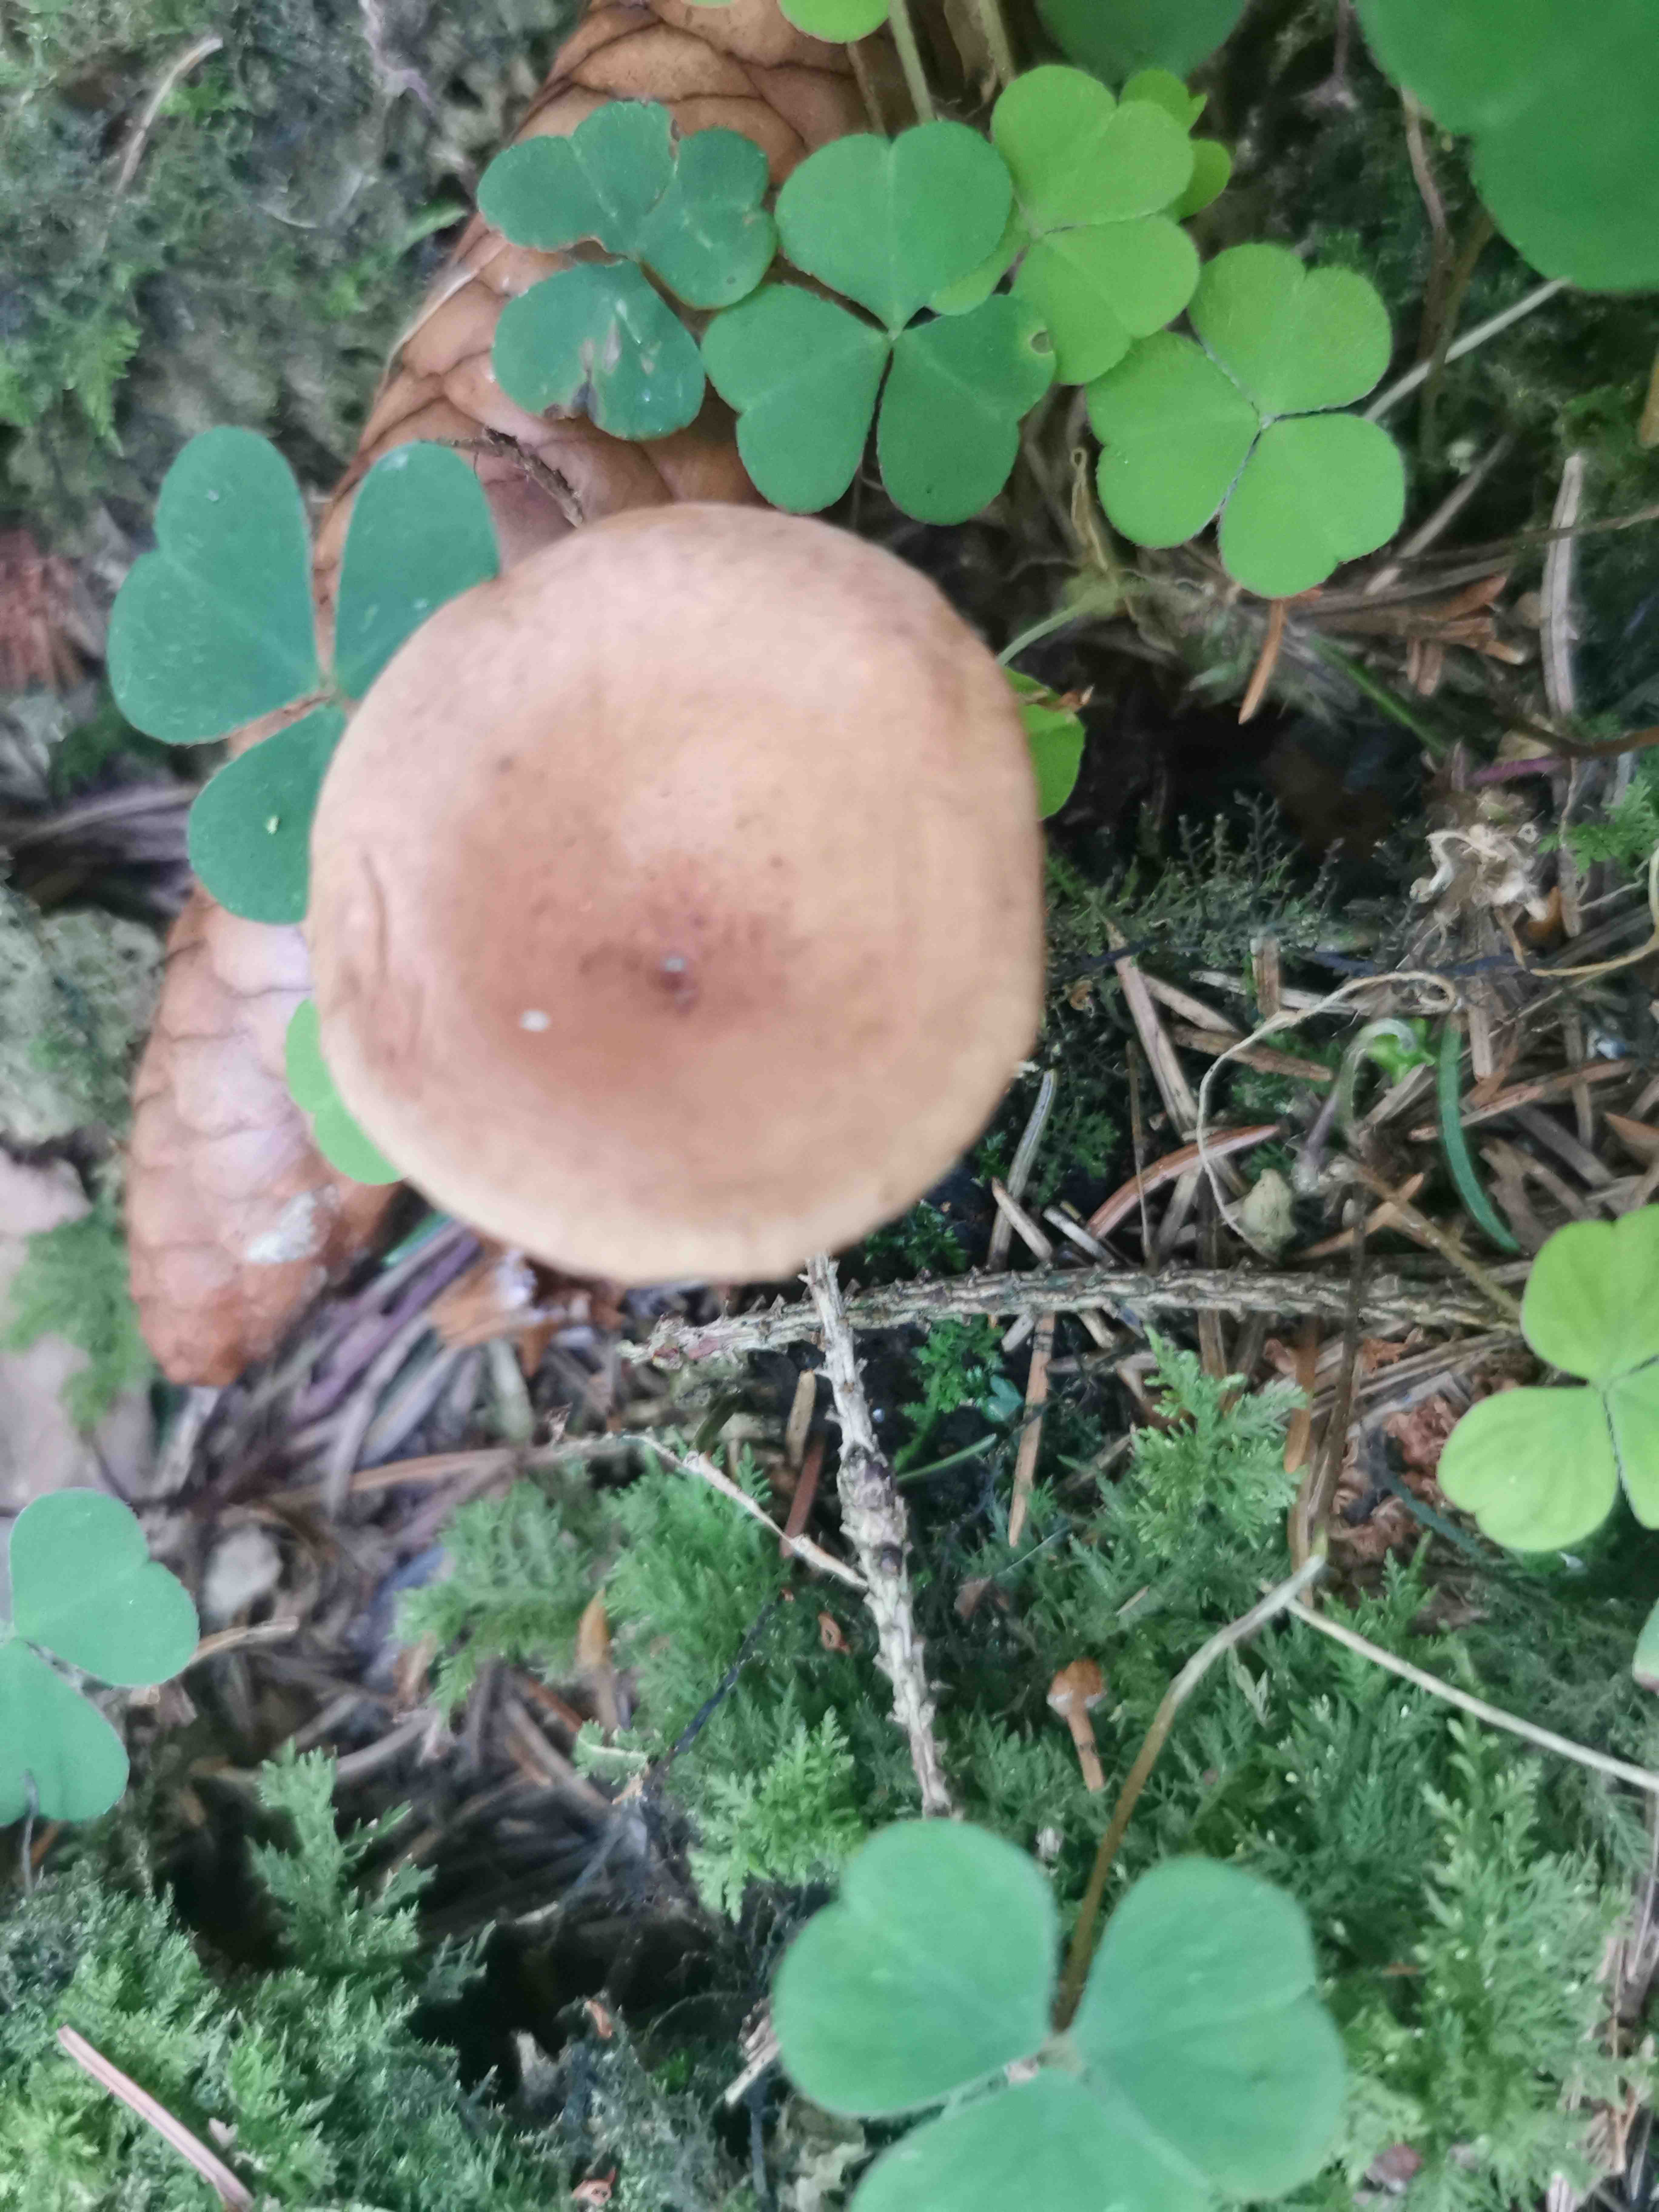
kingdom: Fungi
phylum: Basidiomycota
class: Agaricomycetes
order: Russulales
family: Russulaceae
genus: Lactarius
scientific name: Lactarius
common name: mælkehat
